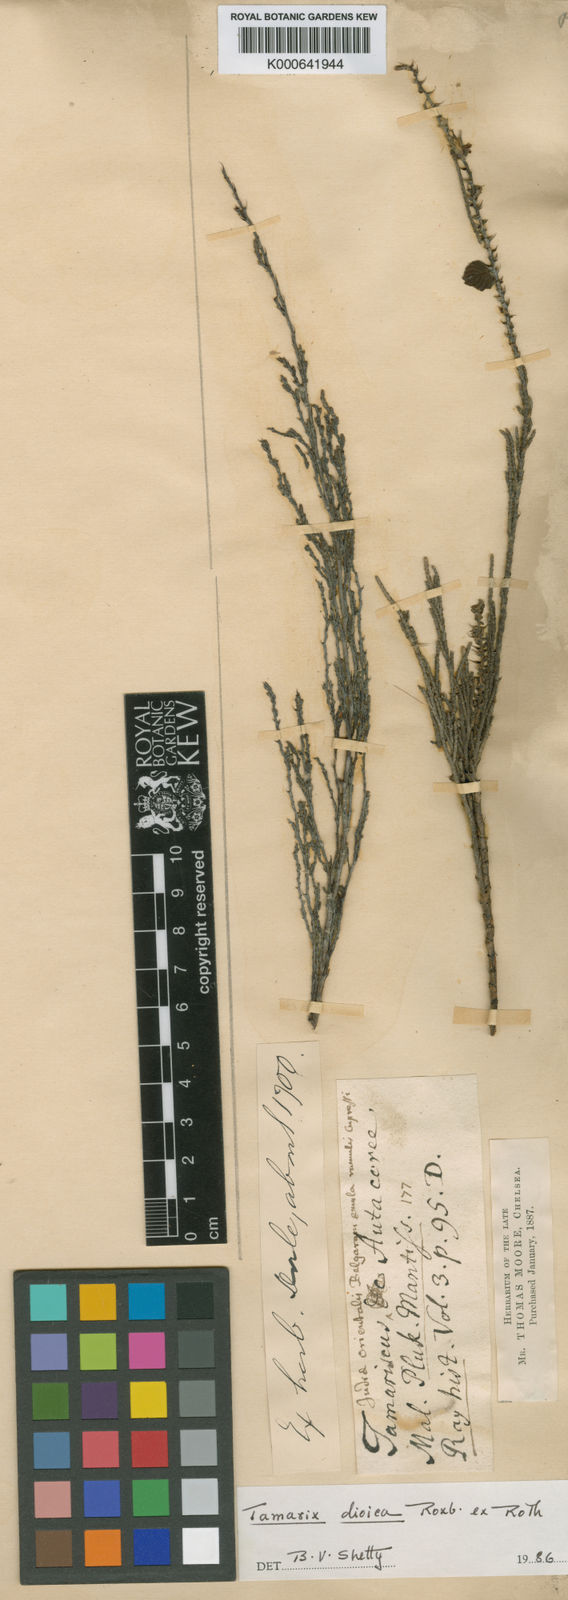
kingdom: Plantae
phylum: Tracheophyta
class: Magnoliopsida
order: Caryophyllales
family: Tamaricaceae
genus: Tamarix
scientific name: Tamarix dioica
